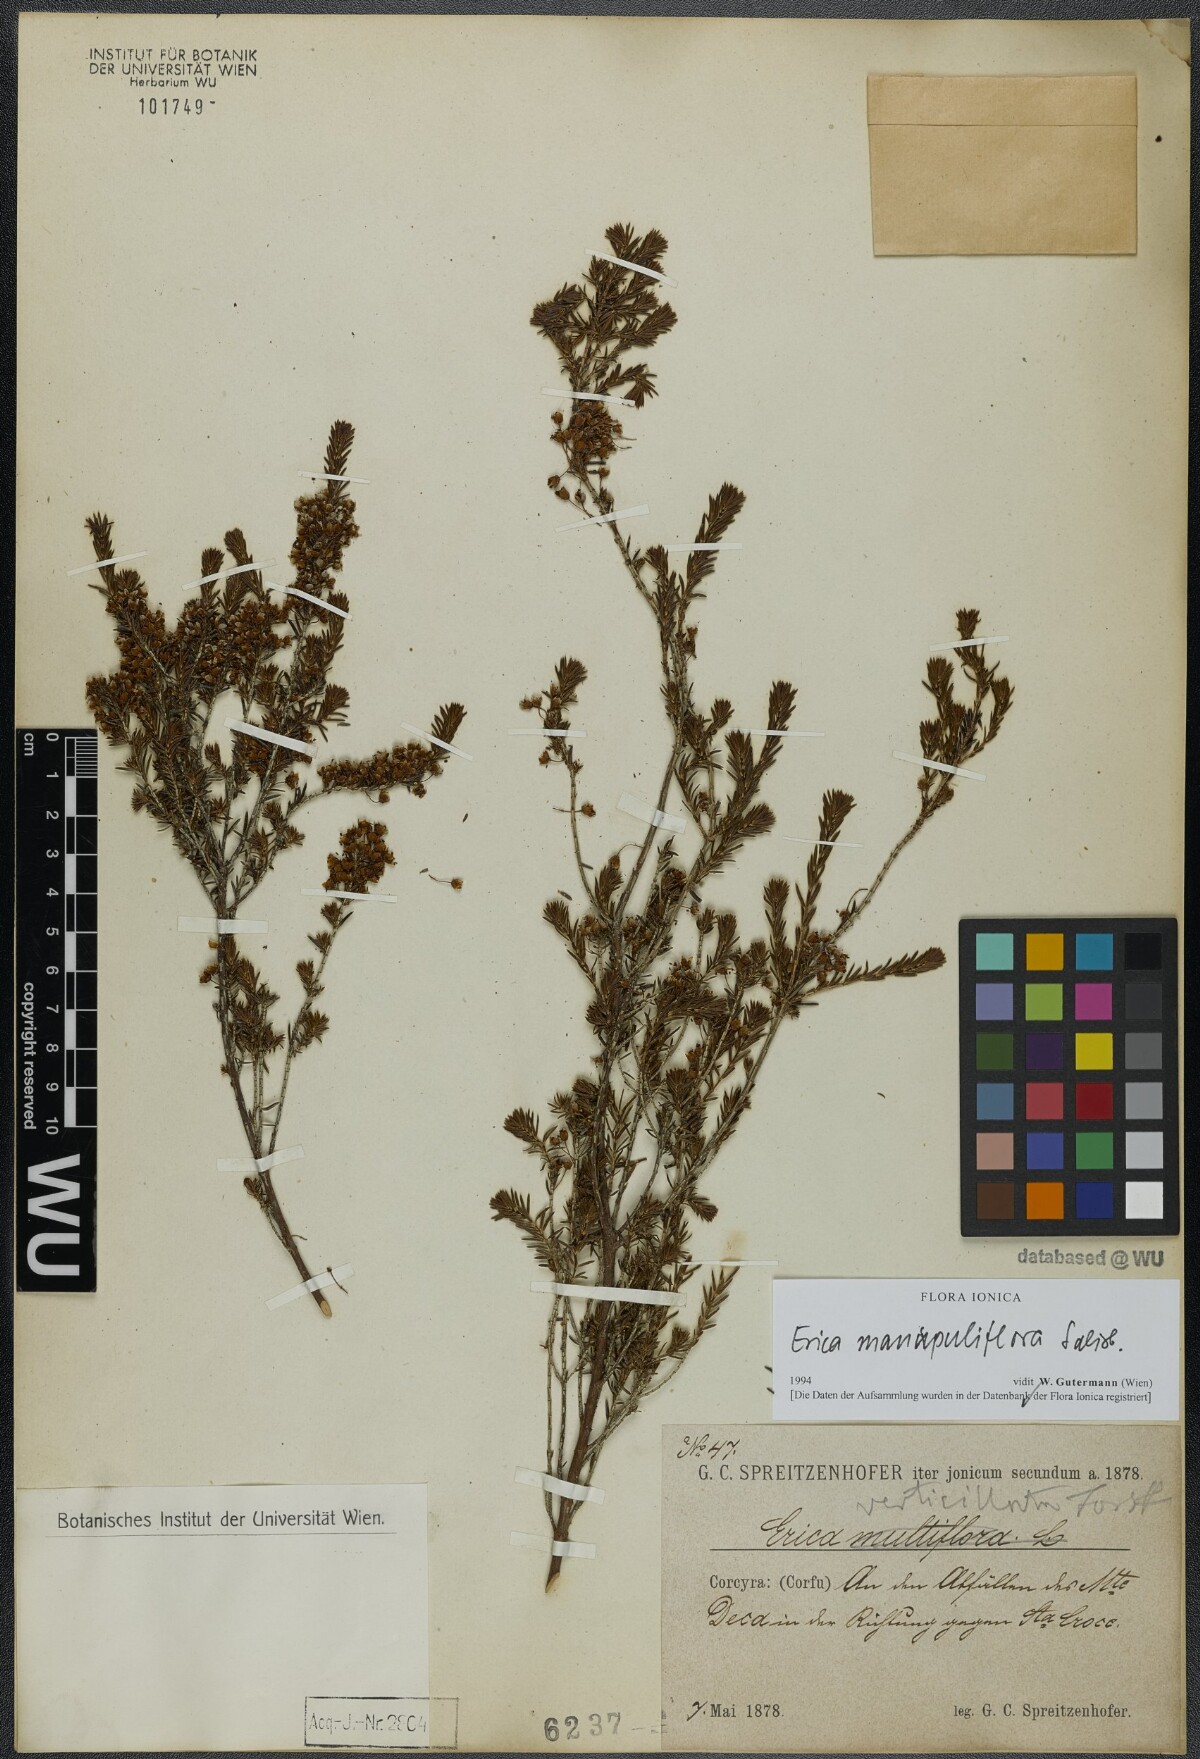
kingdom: Plantae
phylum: Tracheophyta
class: Magnoliopsida
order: Ericales
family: Ericaceae
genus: Erica
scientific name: Erica manipuliflora
